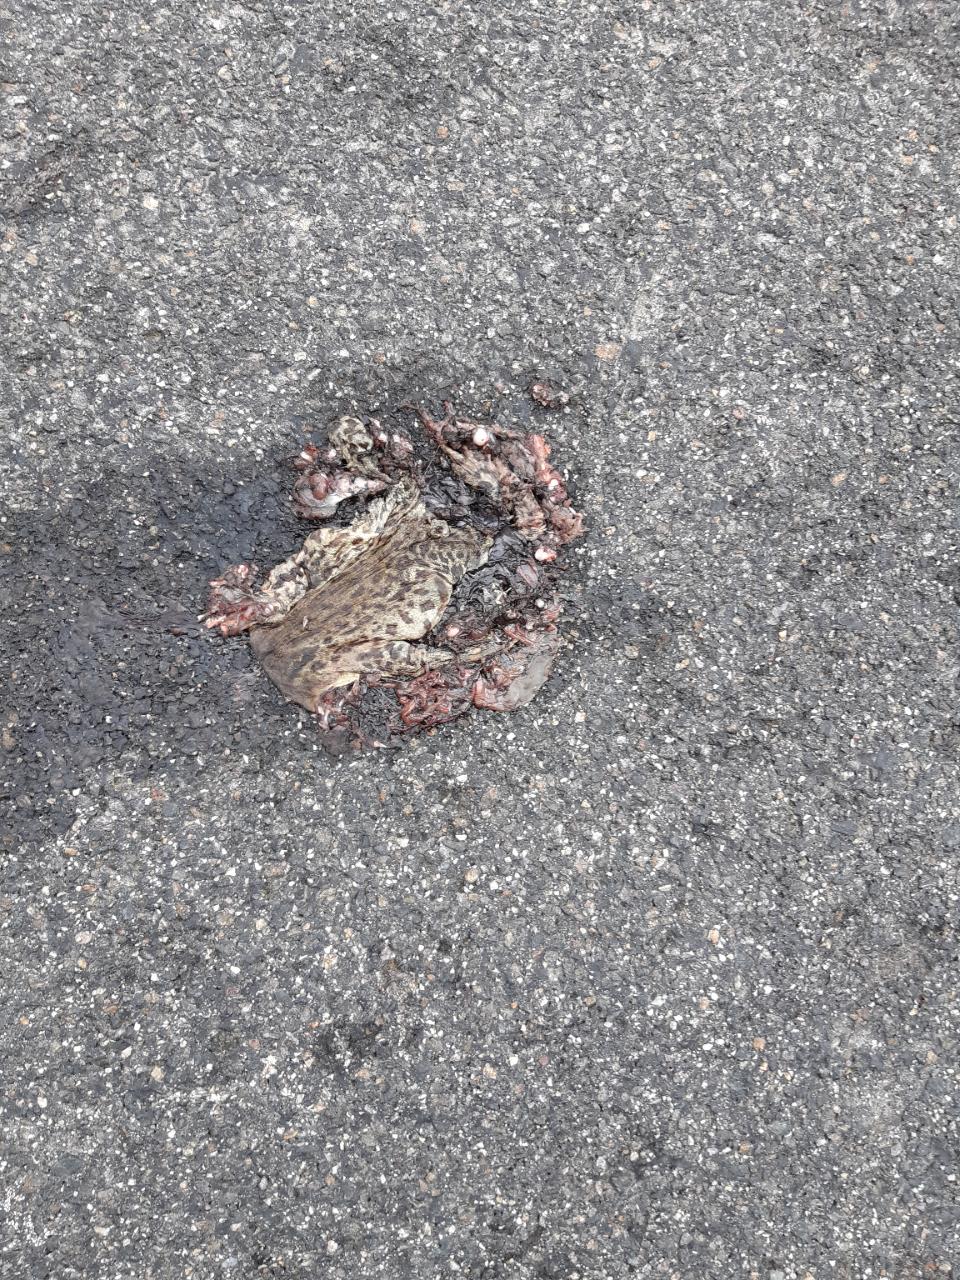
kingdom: Animalia
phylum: Chordata
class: Amphibia
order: Anura
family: Bufonidae
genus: Bufo
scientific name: Bufo bufo
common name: Common toad
